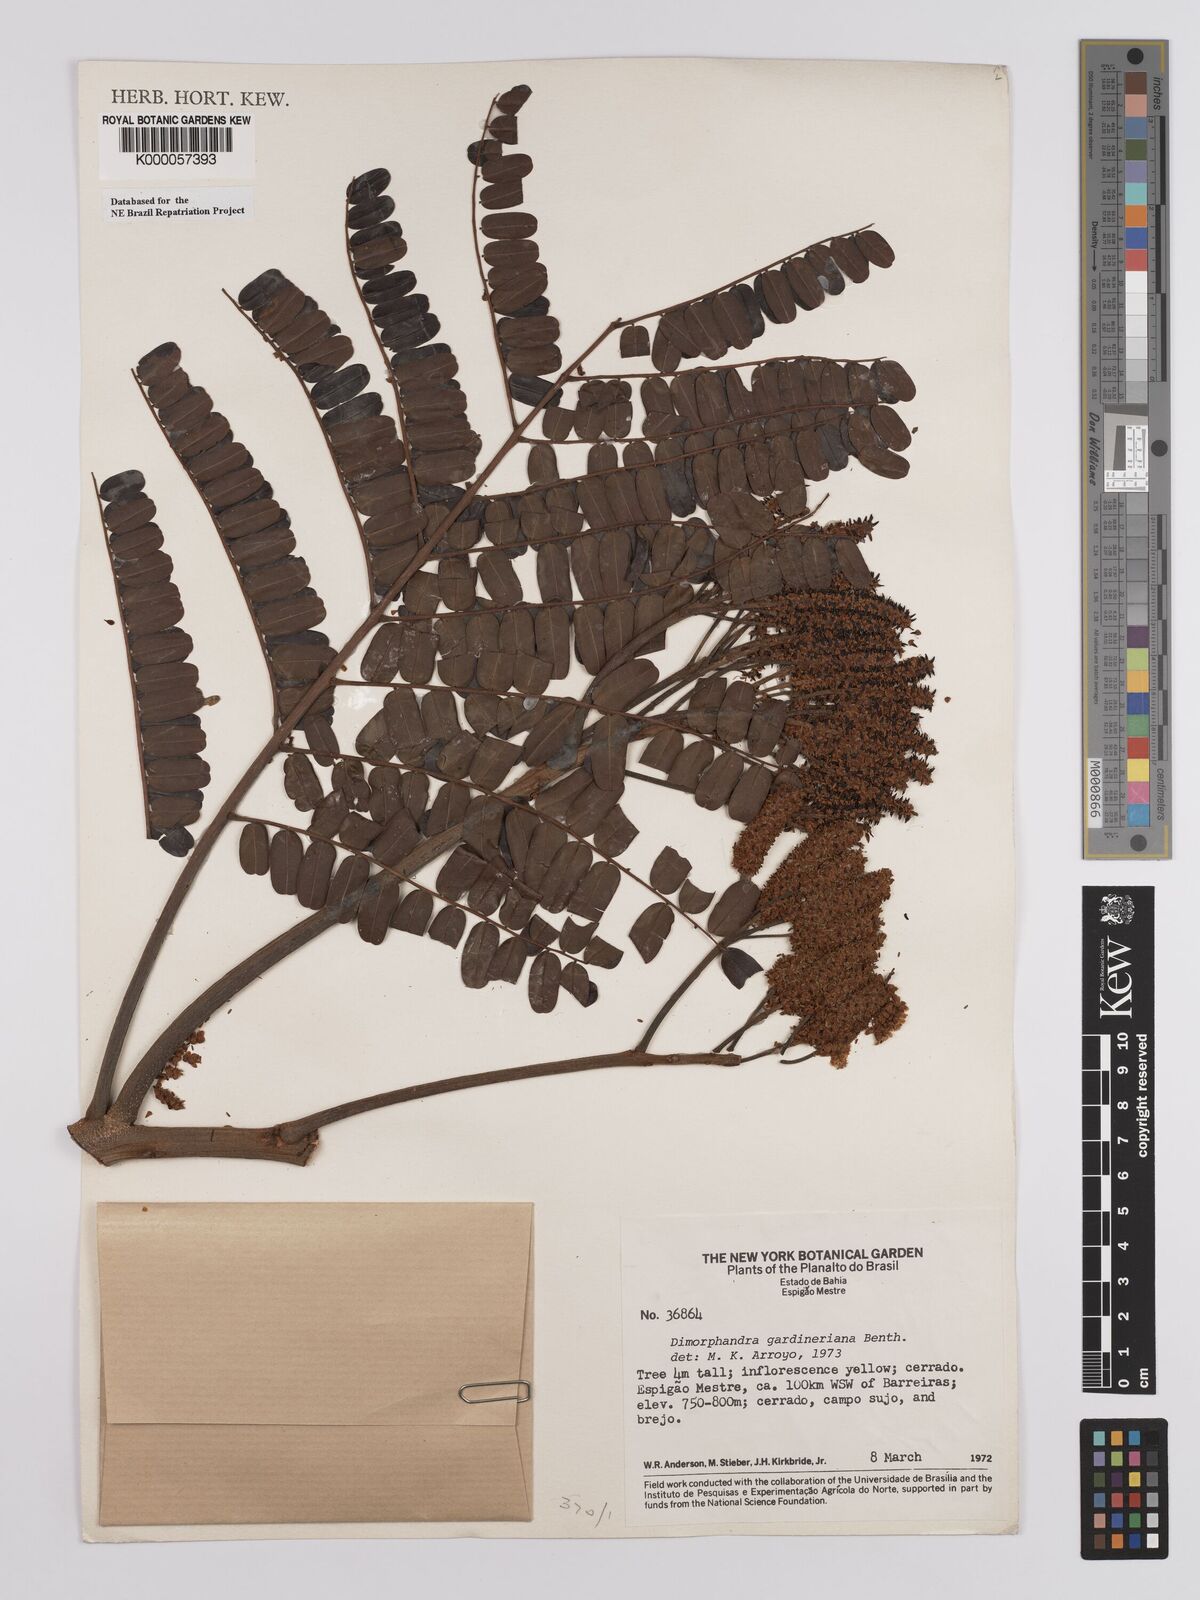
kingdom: Plantae
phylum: Tracheophyta
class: Magnoliopsida
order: Fabales
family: Fabaceae
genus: Dimorphandra
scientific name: Dimorphandra gardneriana
